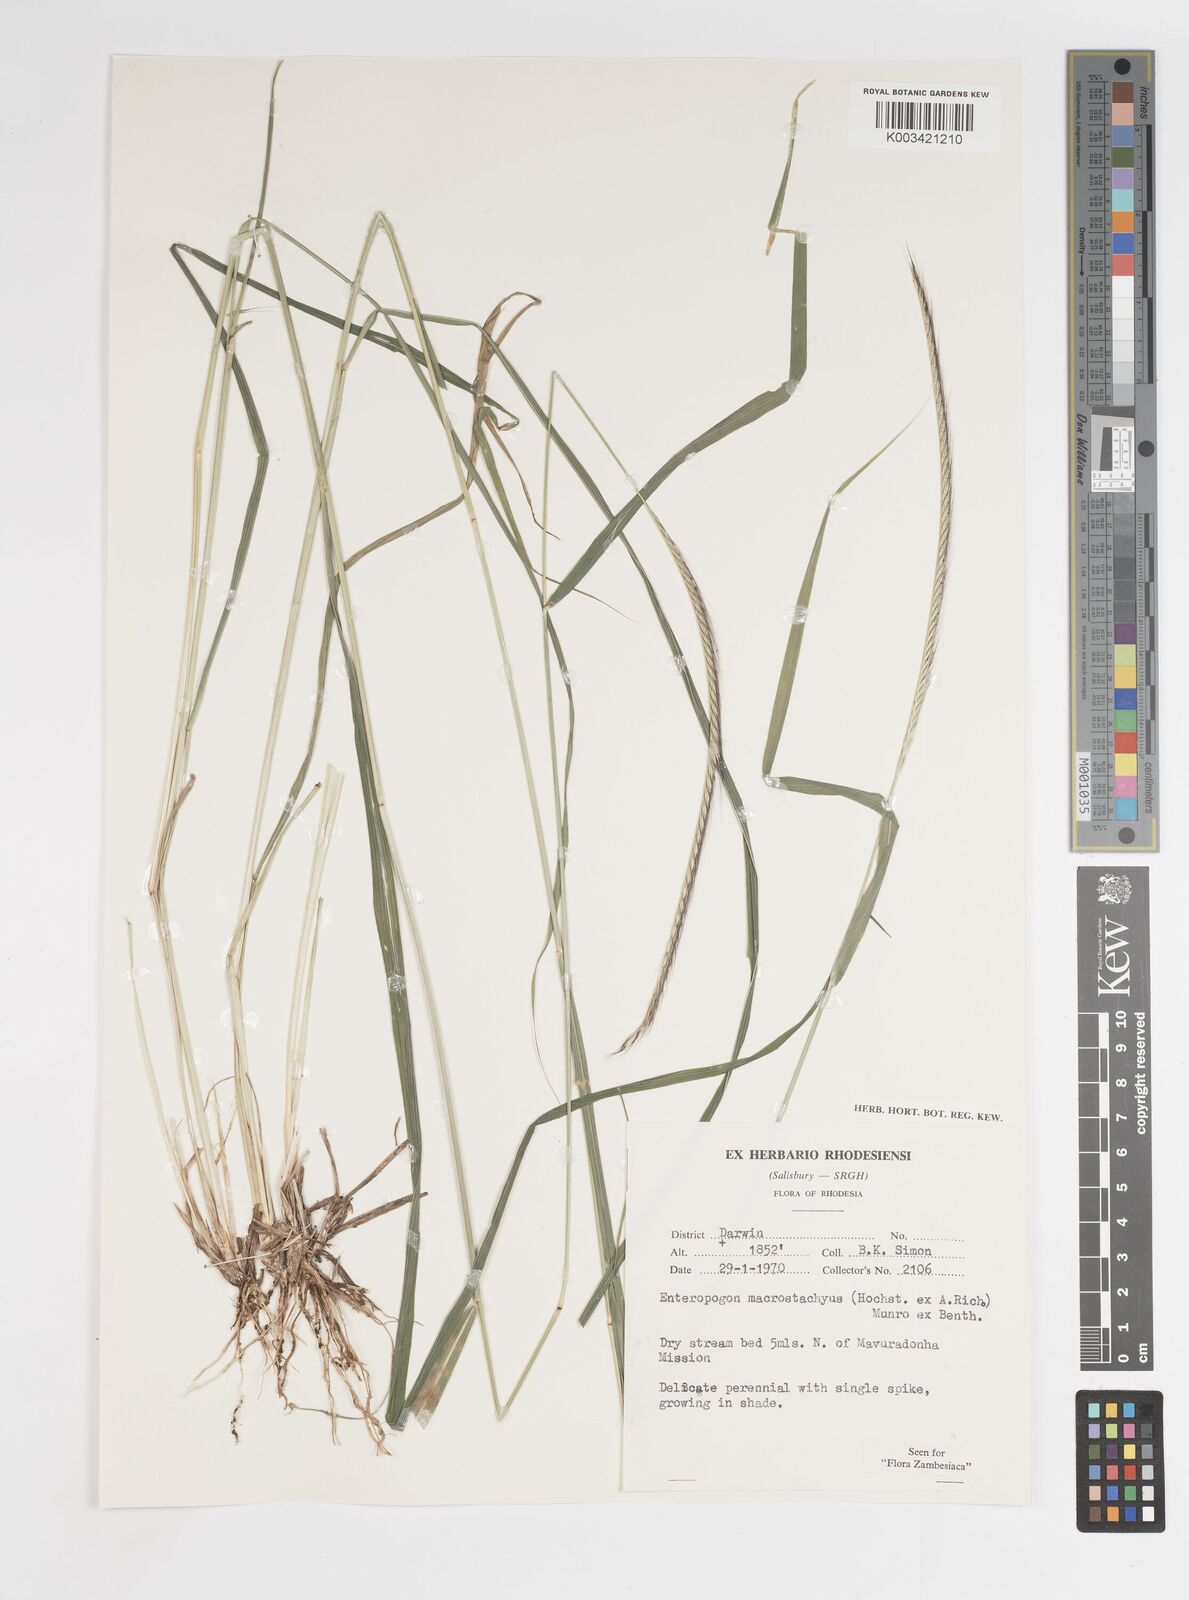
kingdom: Plantae
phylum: Tracheophyta
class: Liliopsida
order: Poales
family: Poaceae
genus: Enteropogon
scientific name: Enteropogon macrostachyus
